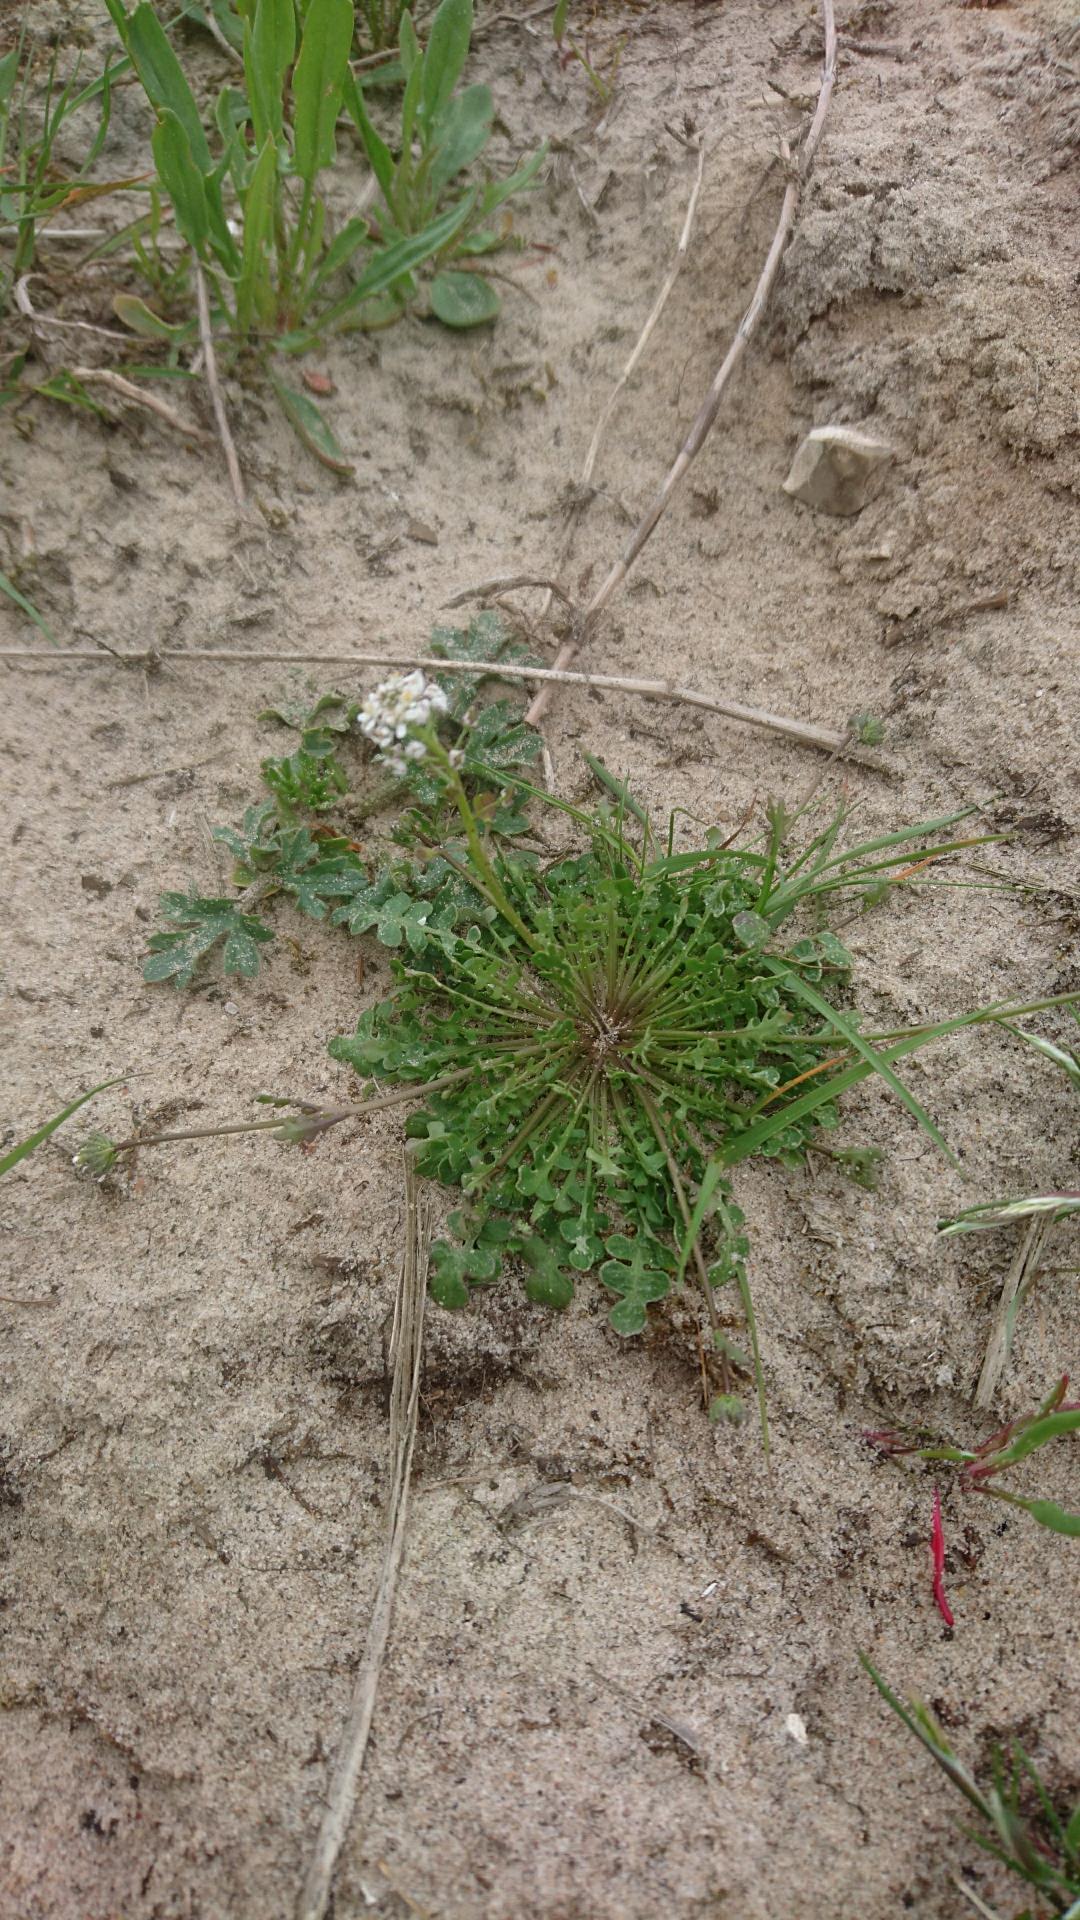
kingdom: Plantae
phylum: Tracheophyta
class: Magnoliopsida
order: Brassicales
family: Brassicaceae
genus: Teesdalia
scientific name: Teesdalia nudicaulis
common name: Flipkrave
